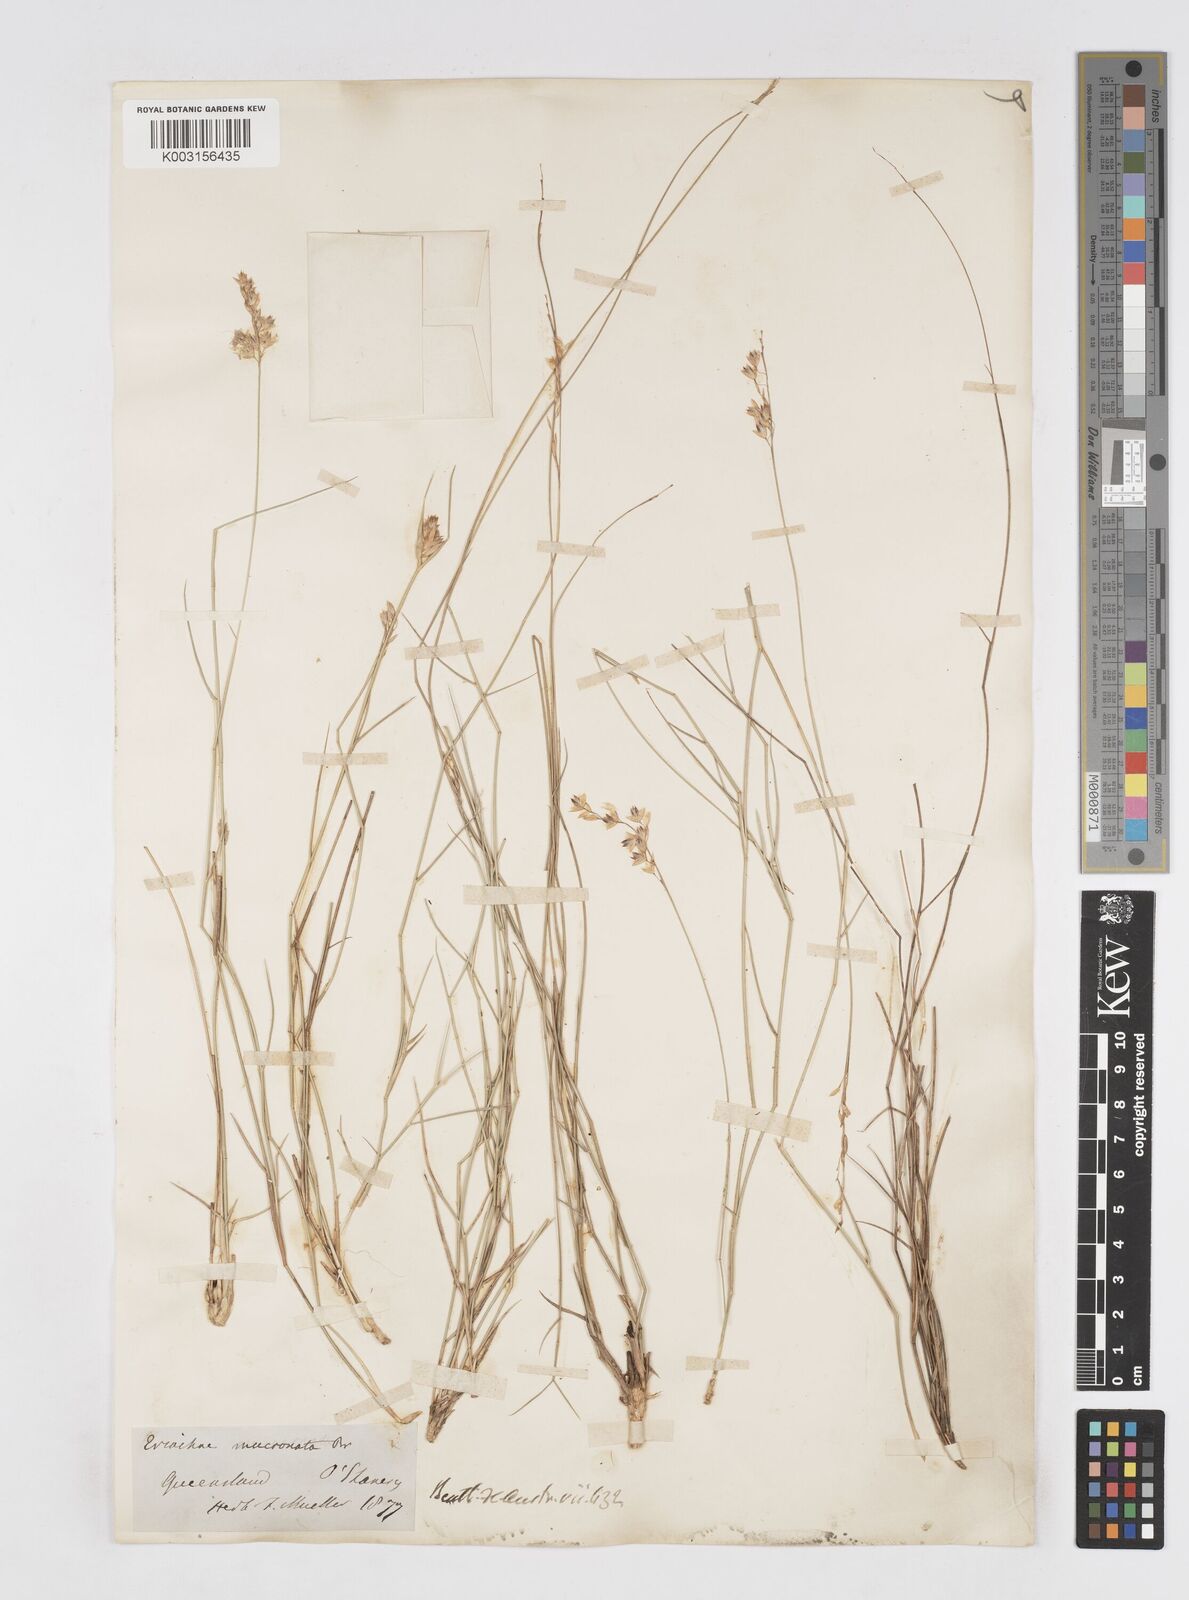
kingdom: Plantae
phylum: Tracheophyta
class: Liliopsida
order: Poales
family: Poaceae
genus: Eriachne
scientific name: Eriachne mucronata
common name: Mountain wanderrie grass
